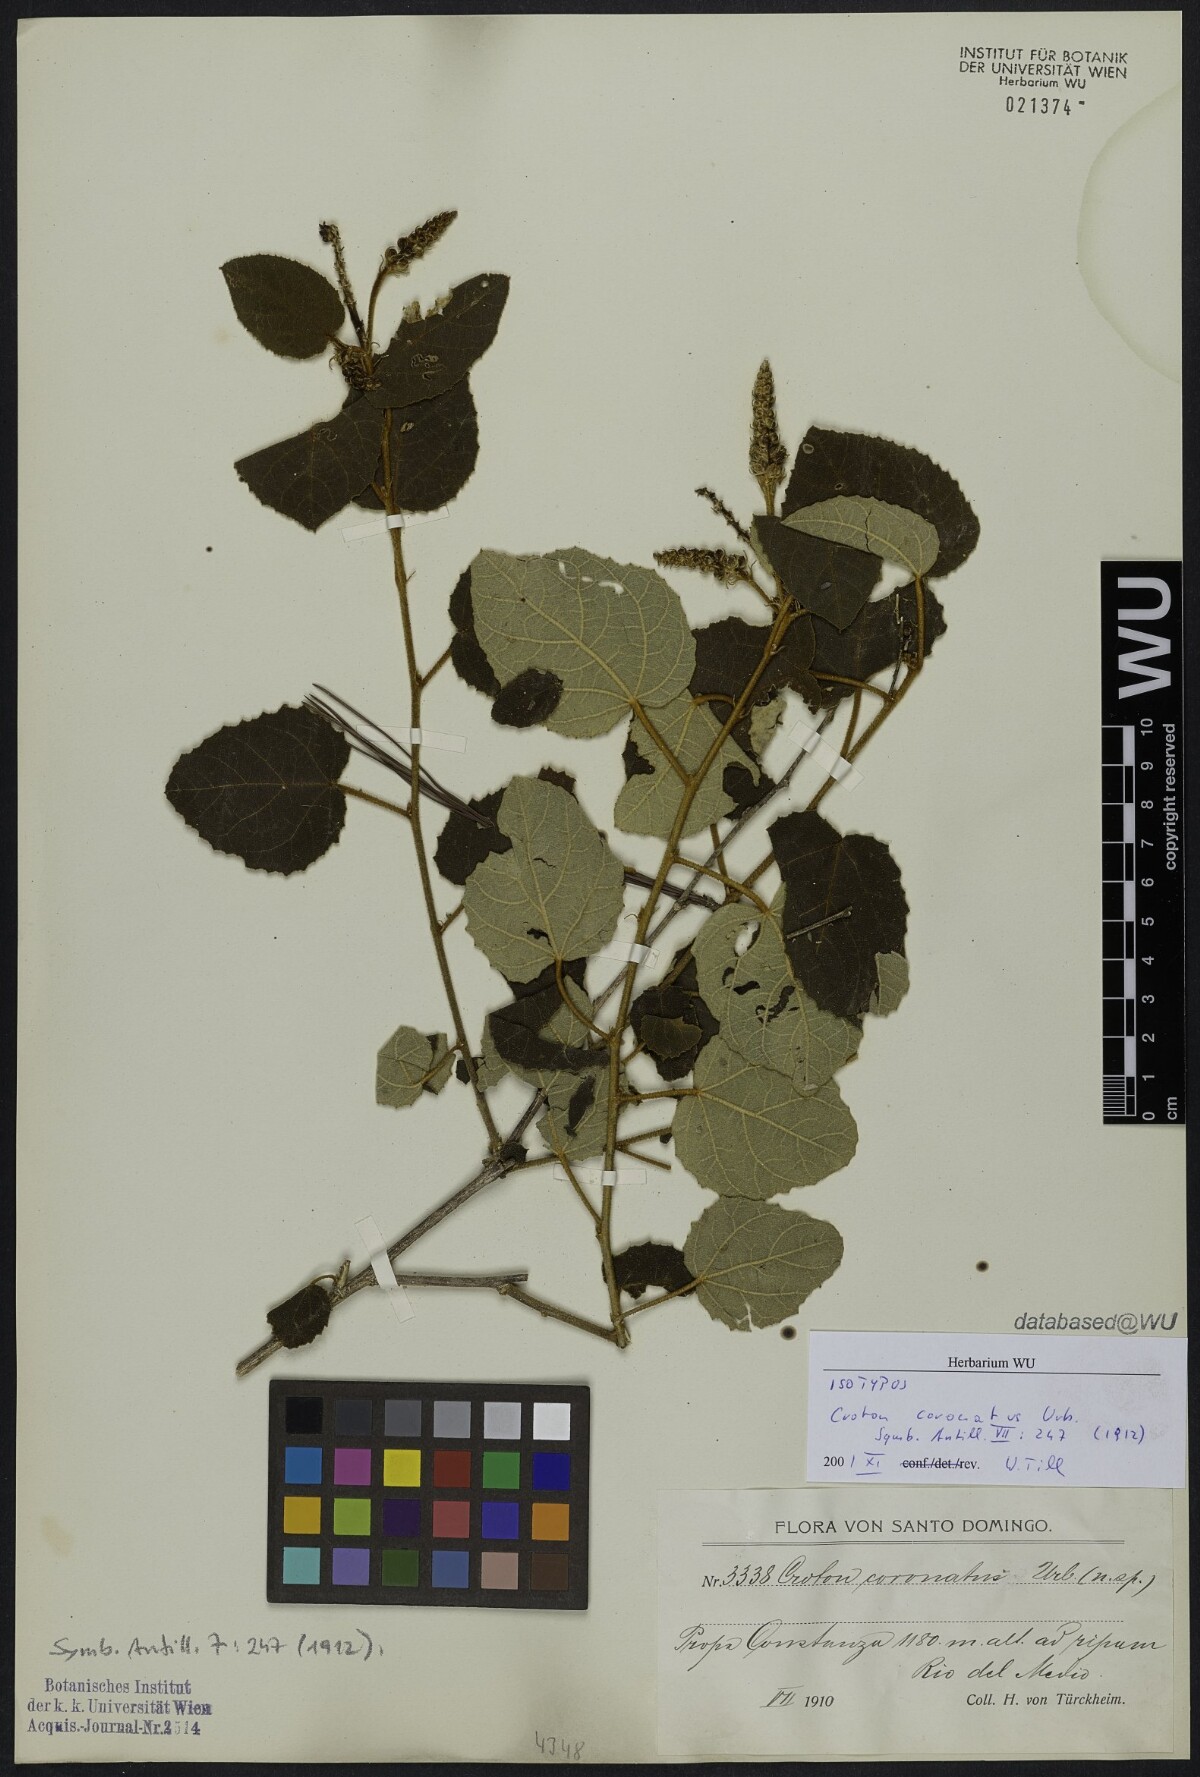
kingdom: Plantae
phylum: Tracheophyta
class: Magnoliopsida
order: Malpighiales
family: Euphorbiaceae
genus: Croton
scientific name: Croton coronatus
